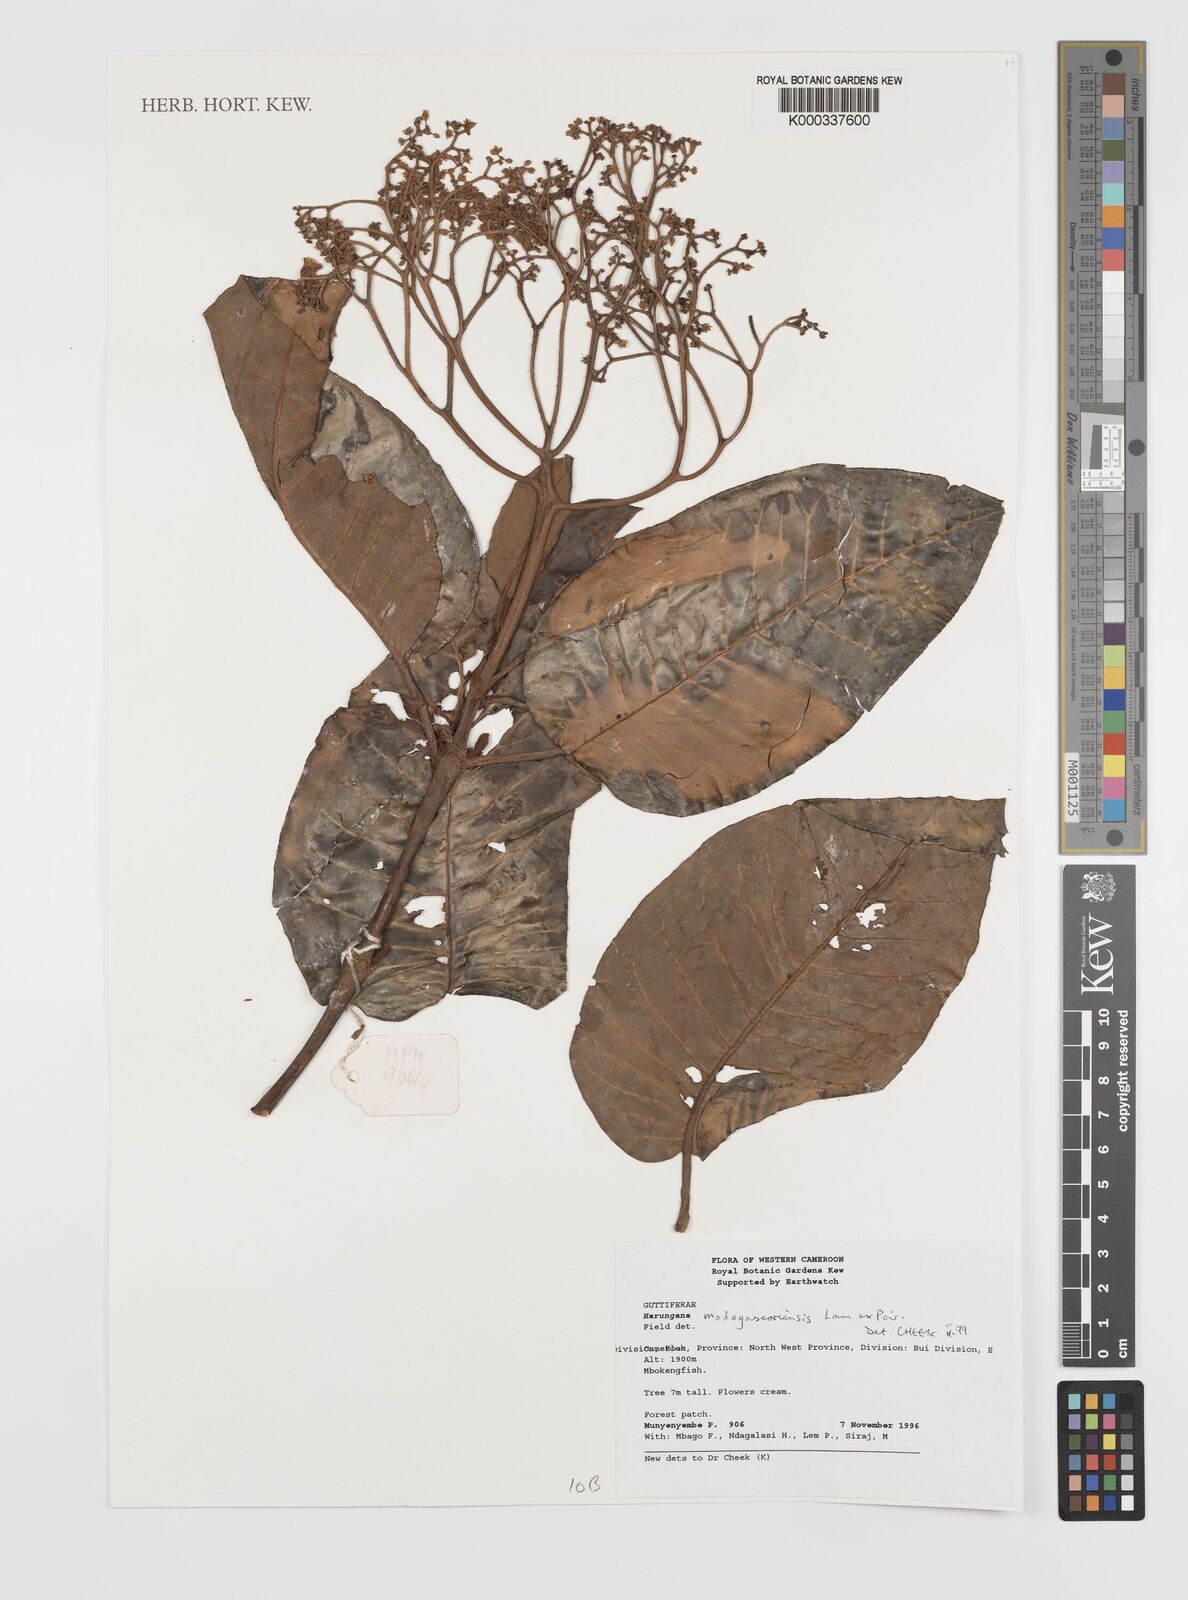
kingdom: Plantae
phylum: Tracheophyta
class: Magnoliopsida
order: Malpighiales
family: Hypericaceae
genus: Harungana
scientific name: Harungana madagascariensis
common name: Orange milktree
